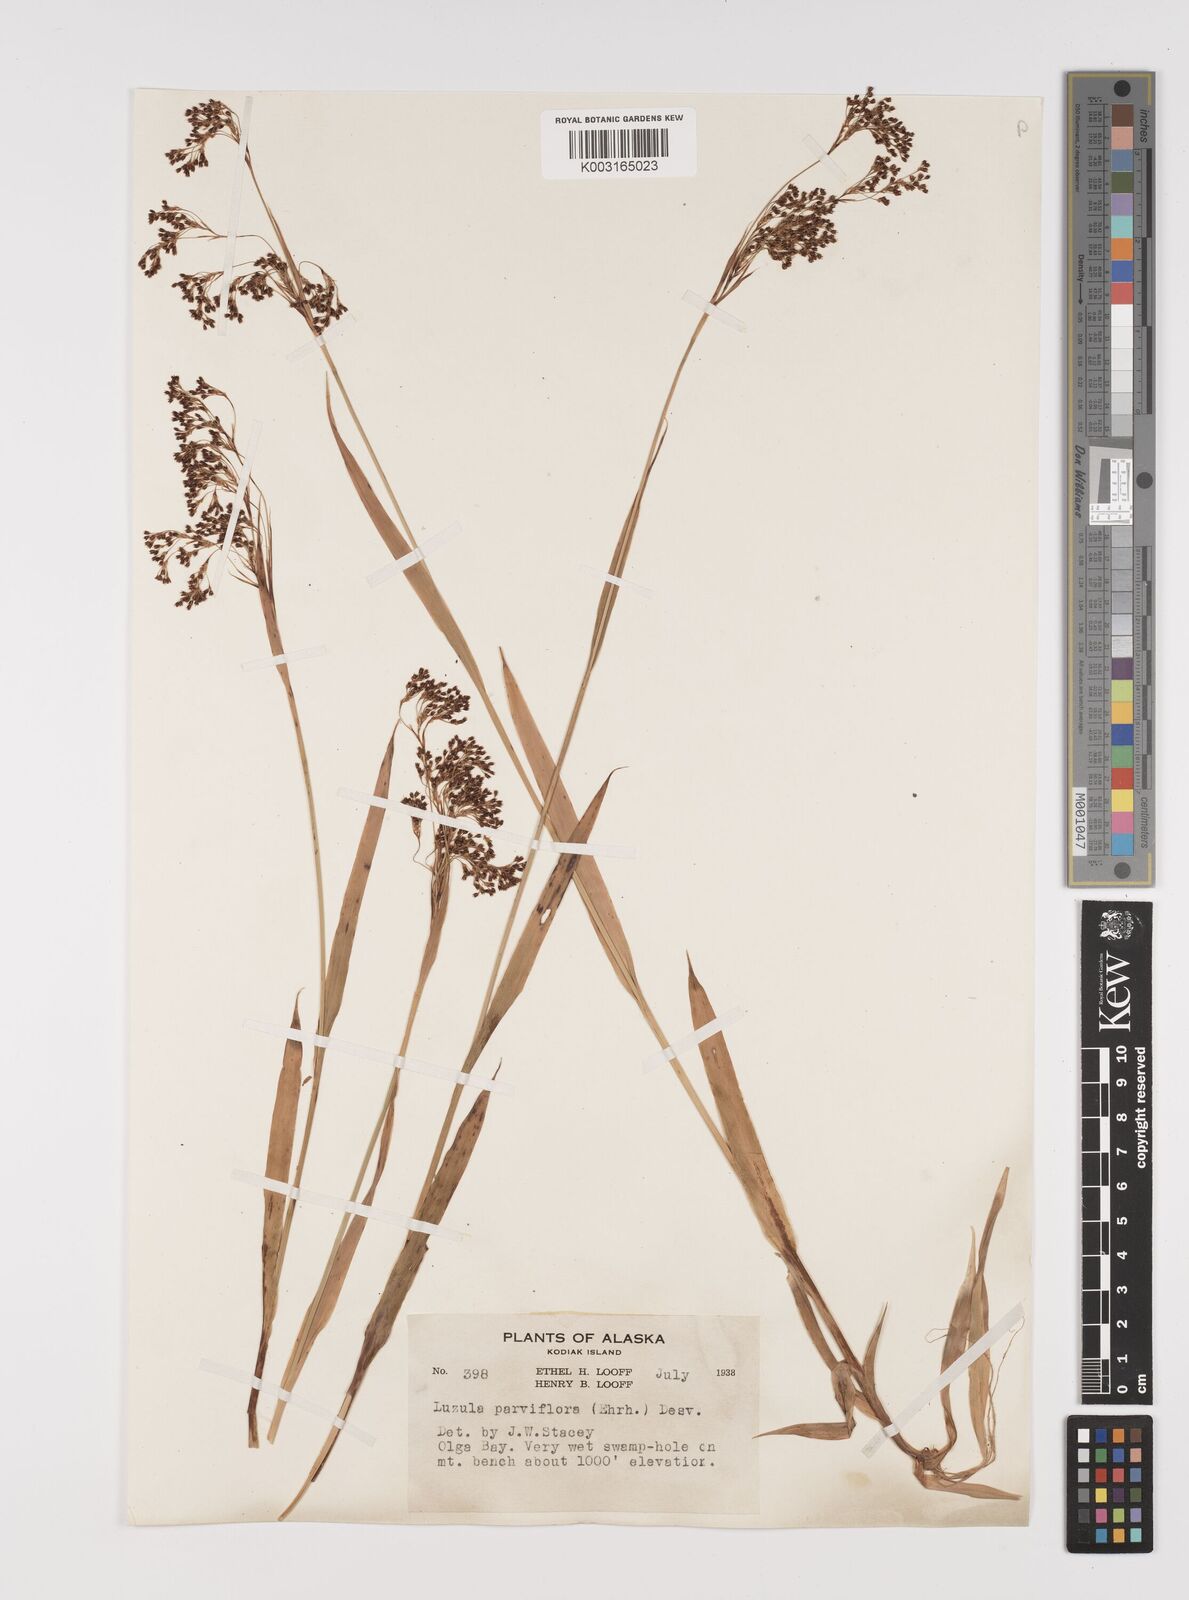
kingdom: Plantae
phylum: Tracheophyta
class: Liliopsida
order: Poales
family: Juncaceae
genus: Luzula
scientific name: Luzula parviflora
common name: Millet woodrush
